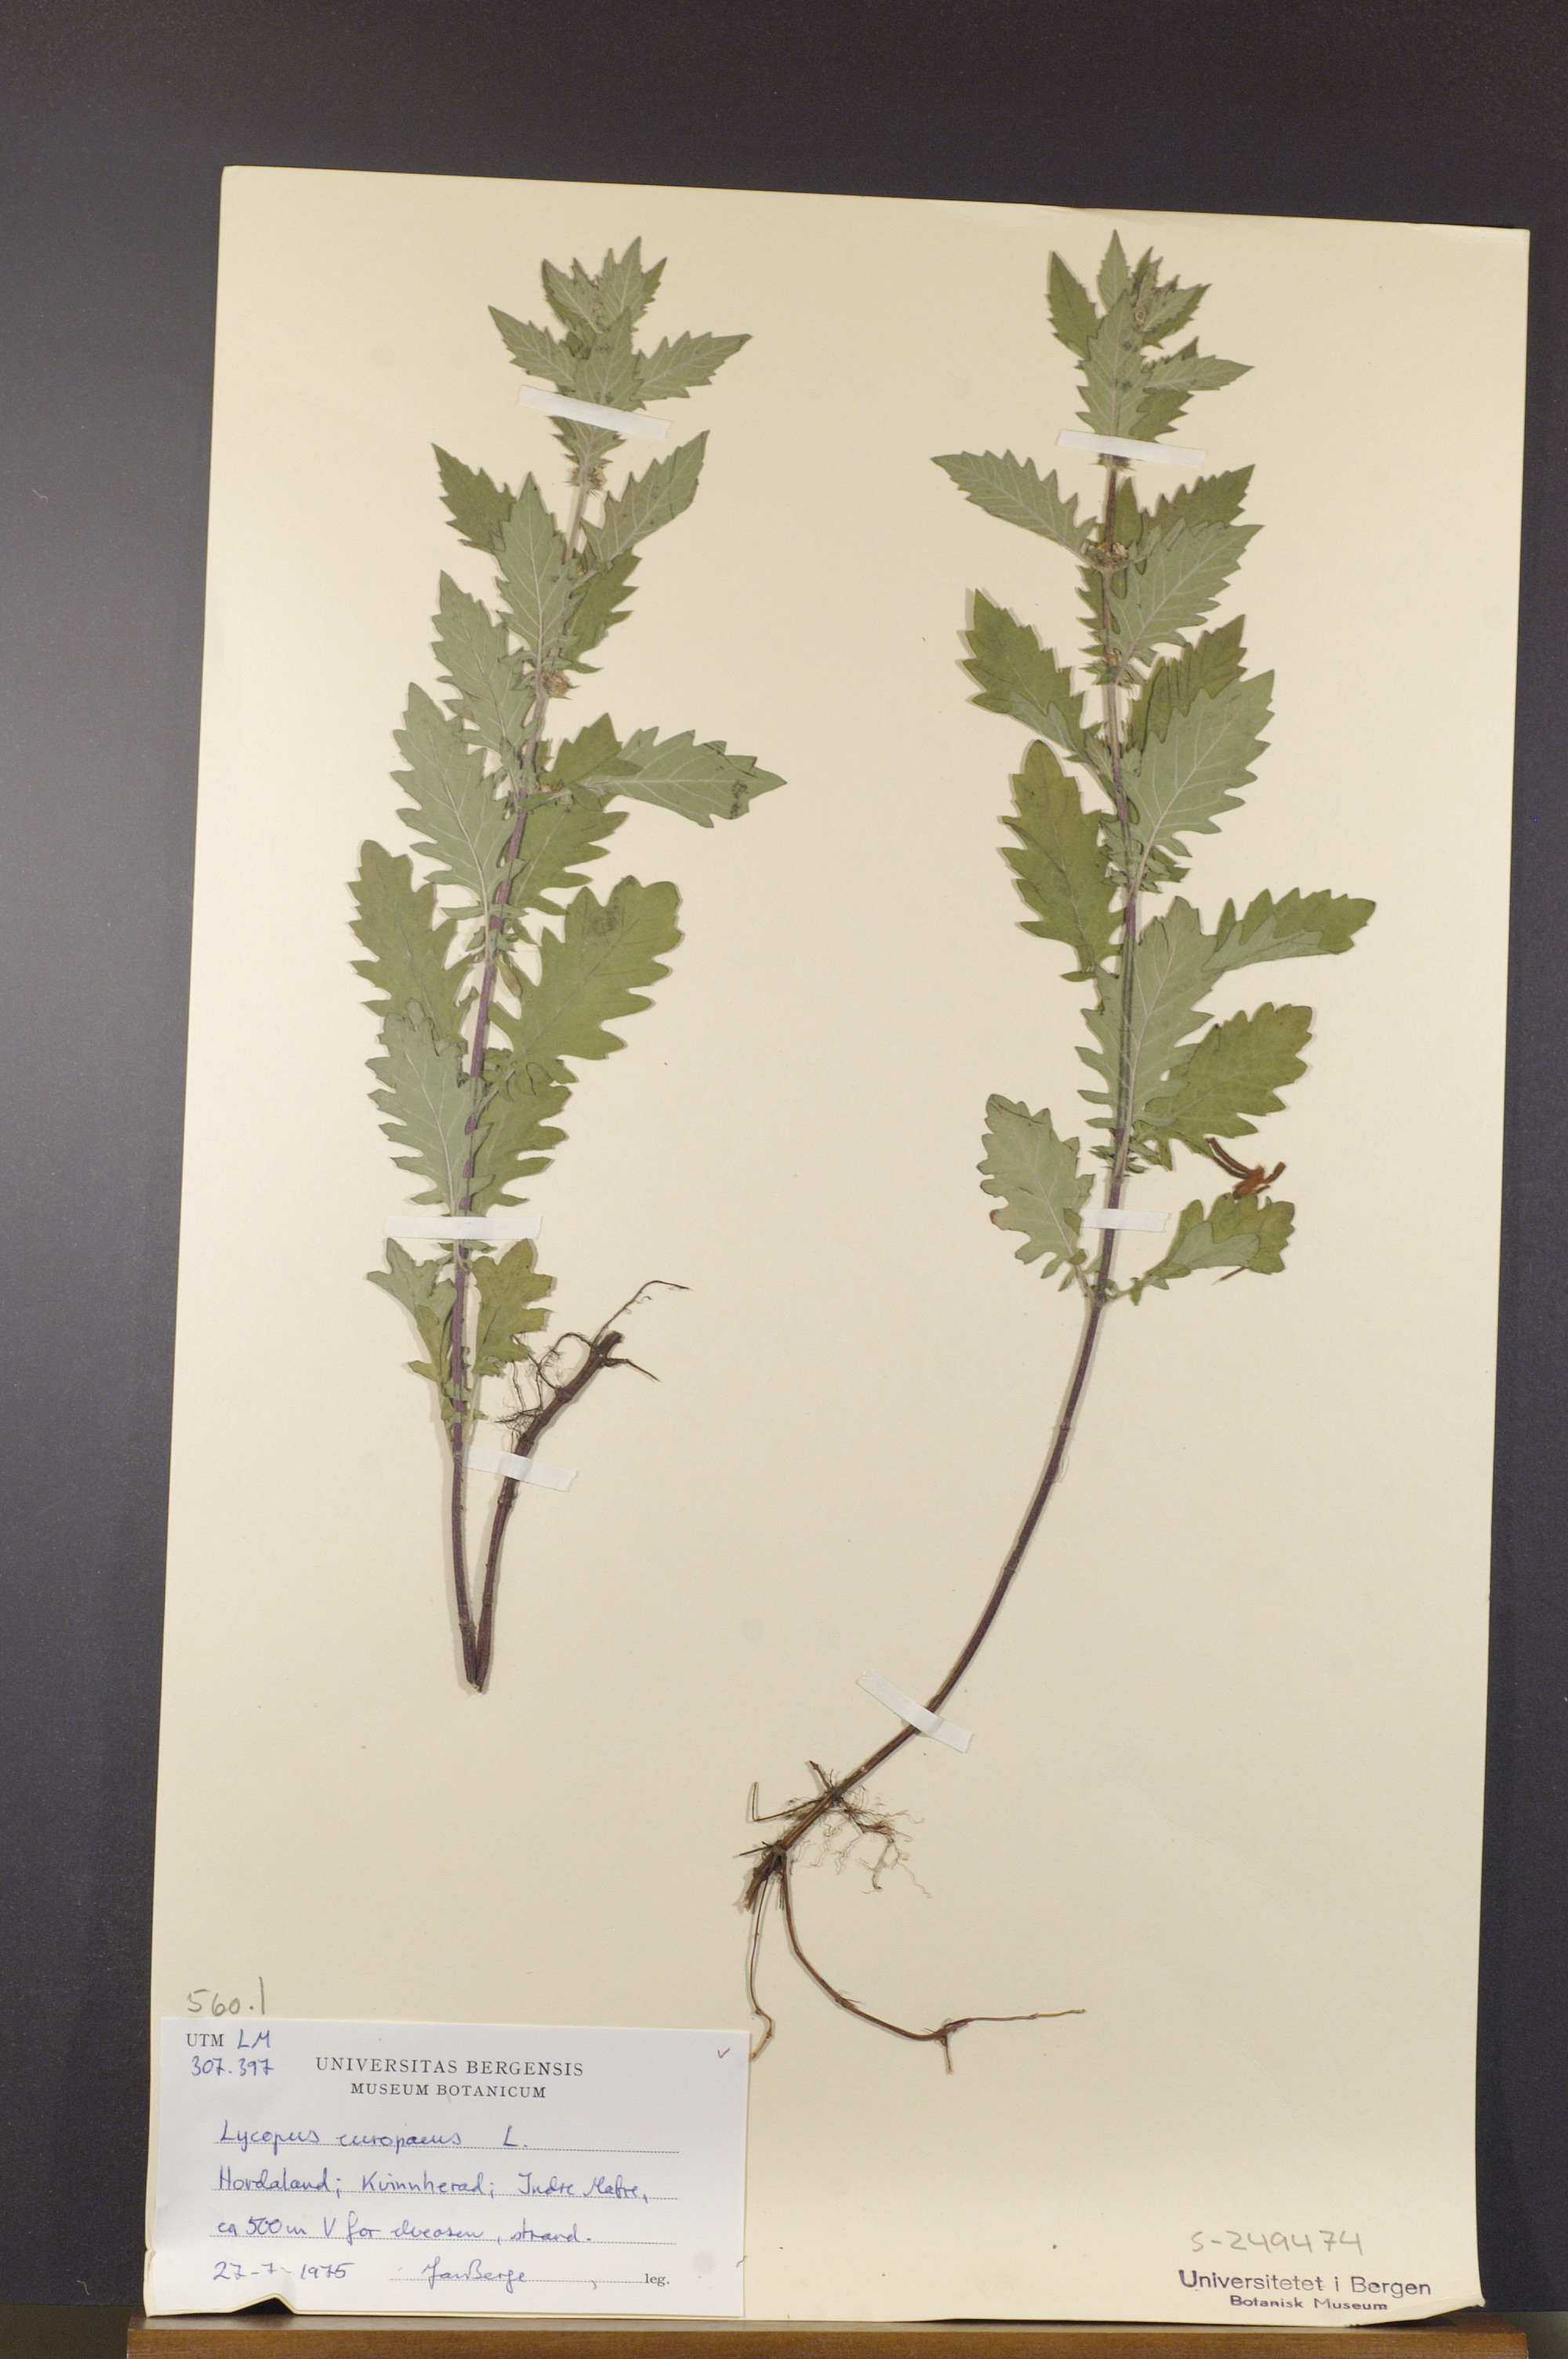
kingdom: Plantae
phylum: Tracheophyta
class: Magnoliopsida
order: Lamiales
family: Lamiaceae
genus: Lycopus
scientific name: Lycopus europaeus
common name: European bugleweed
